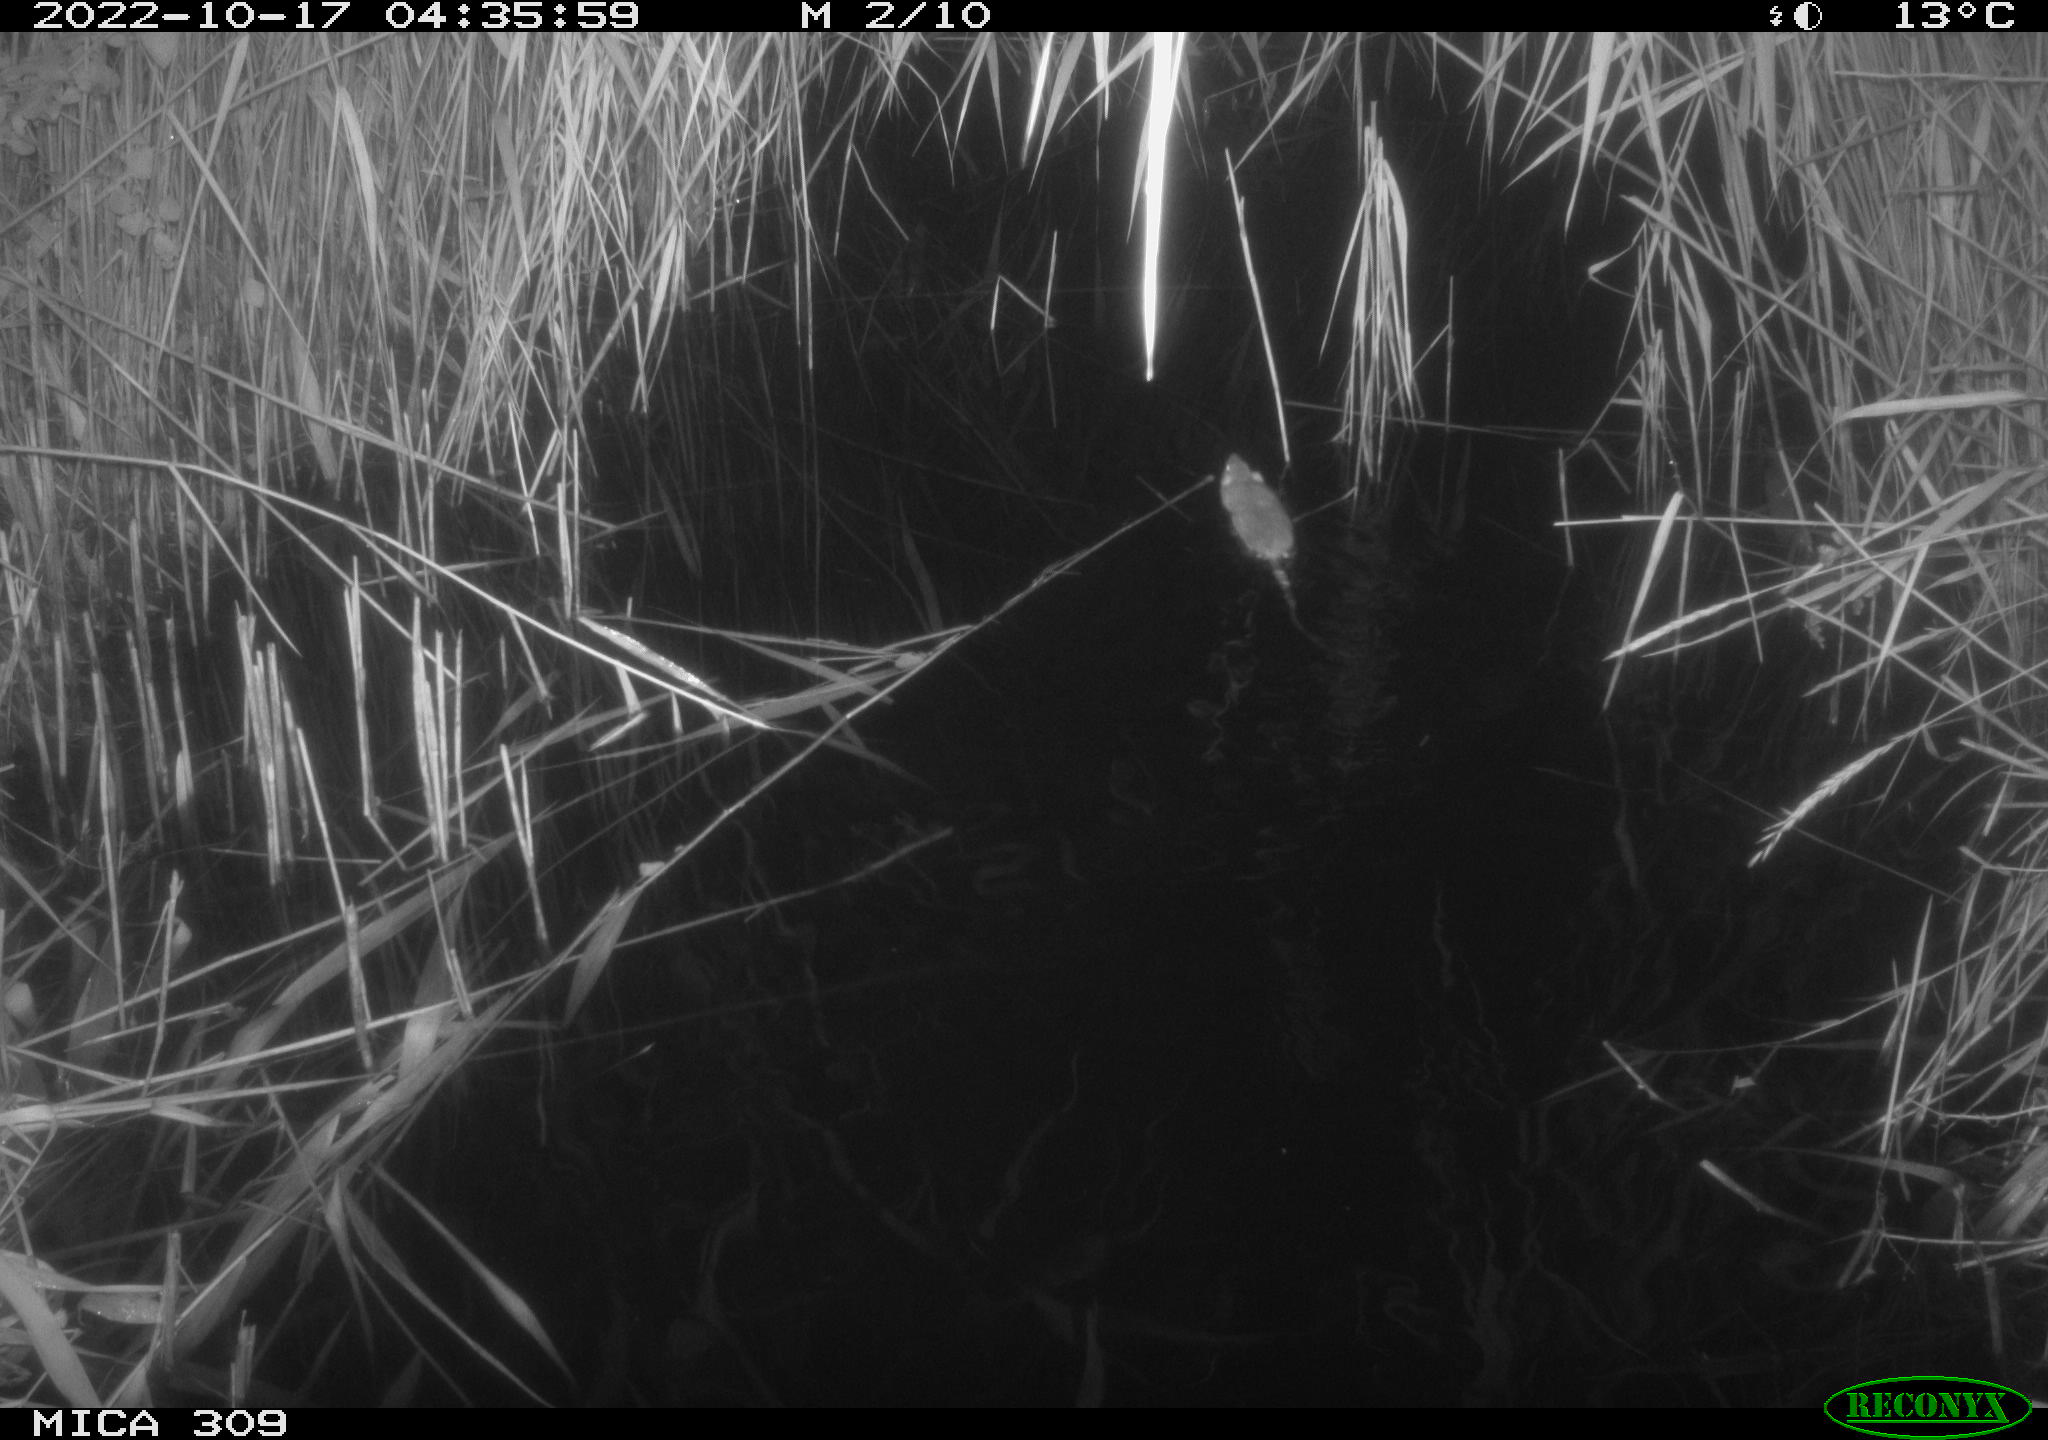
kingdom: Animalia
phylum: Chordata
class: Mammalia
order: Rodentia
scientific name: Rodentia
